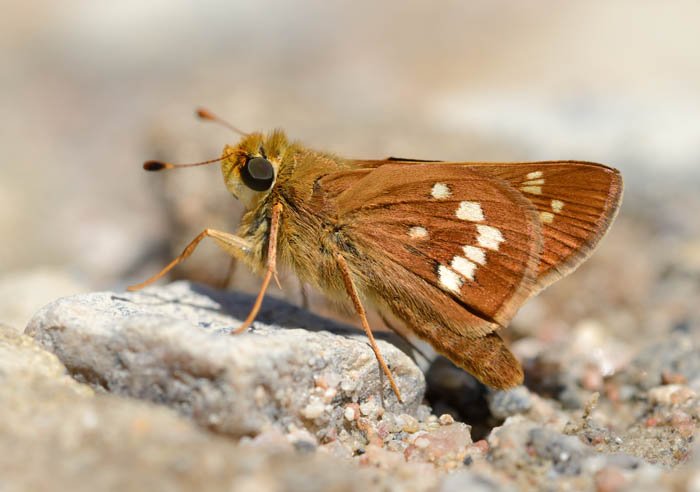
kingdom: Animalia
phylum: Arthropoda
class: Insecta
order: Lepidoptera
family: Hesperiidae
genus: Hesperia
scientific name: Hesperia leonardus
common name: Leonard's Skipper
